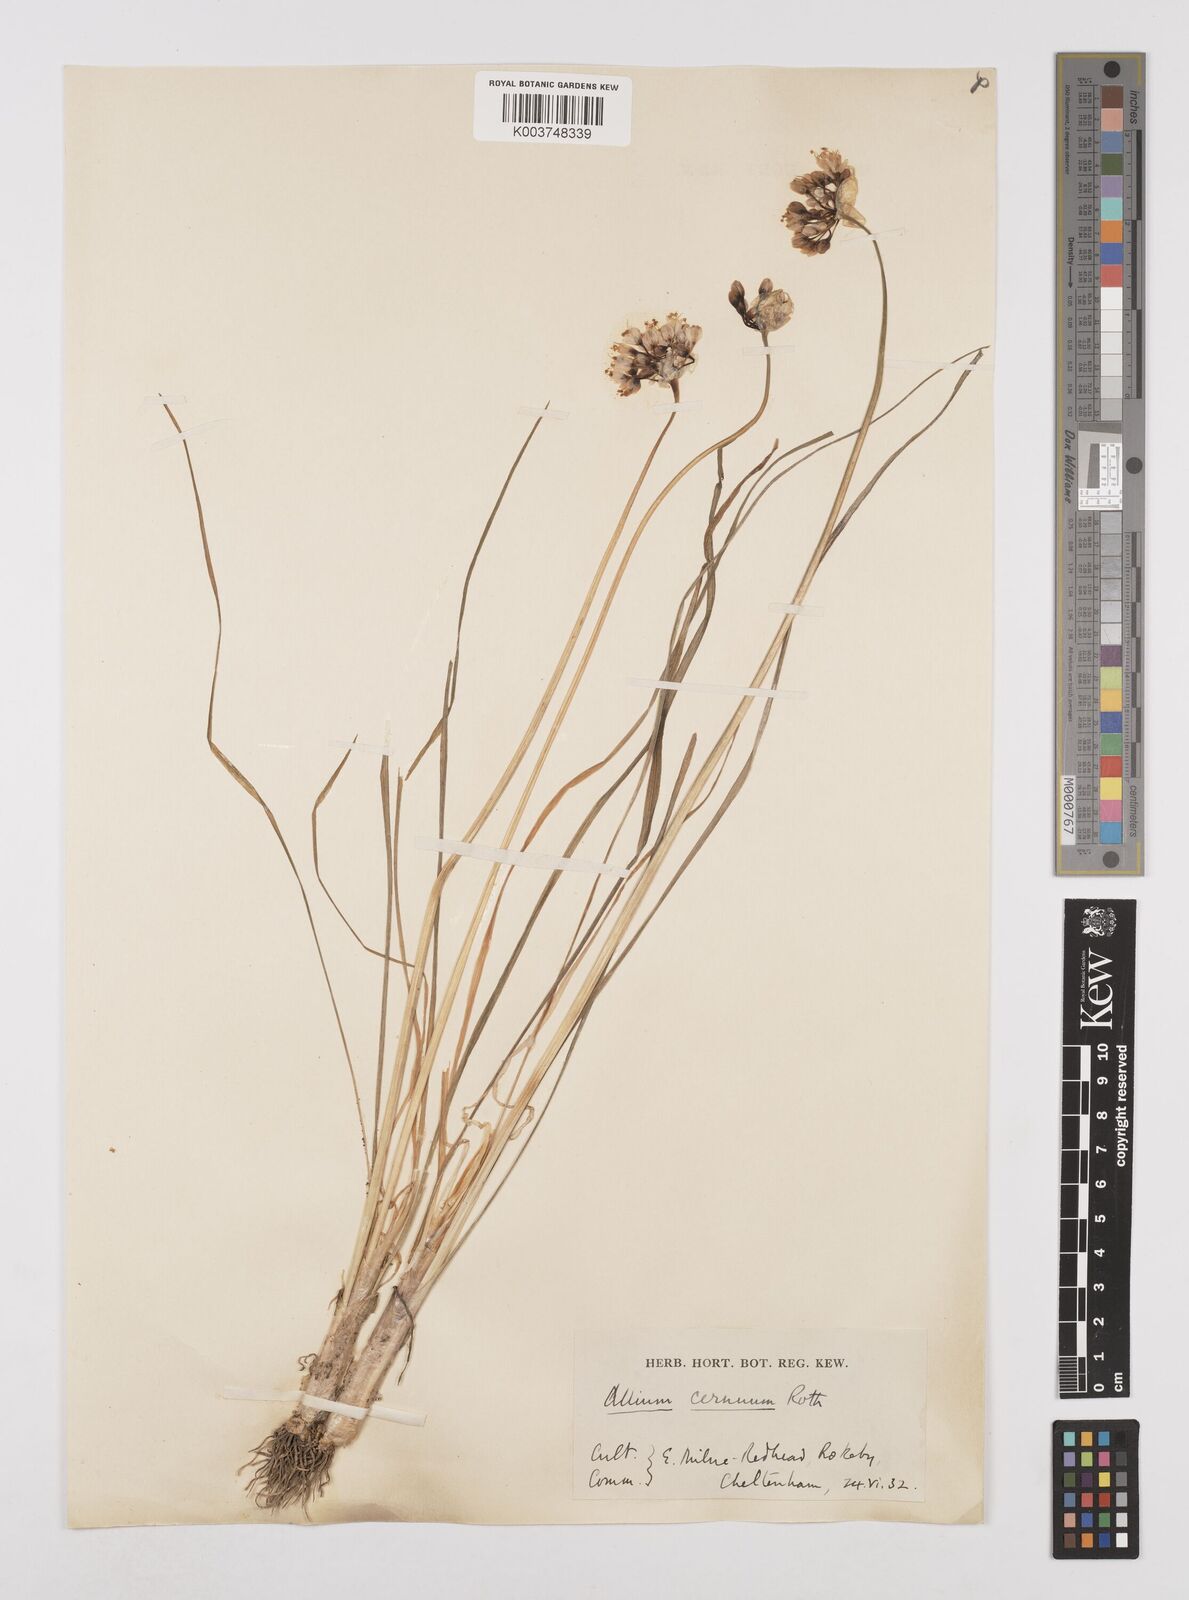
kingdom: Plantae
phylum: Tracheophyta
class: Liliopsida
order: Asparagales
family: Amaryllidaceae
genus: Allium
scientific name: Allium cernuum
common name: Nodding onion
